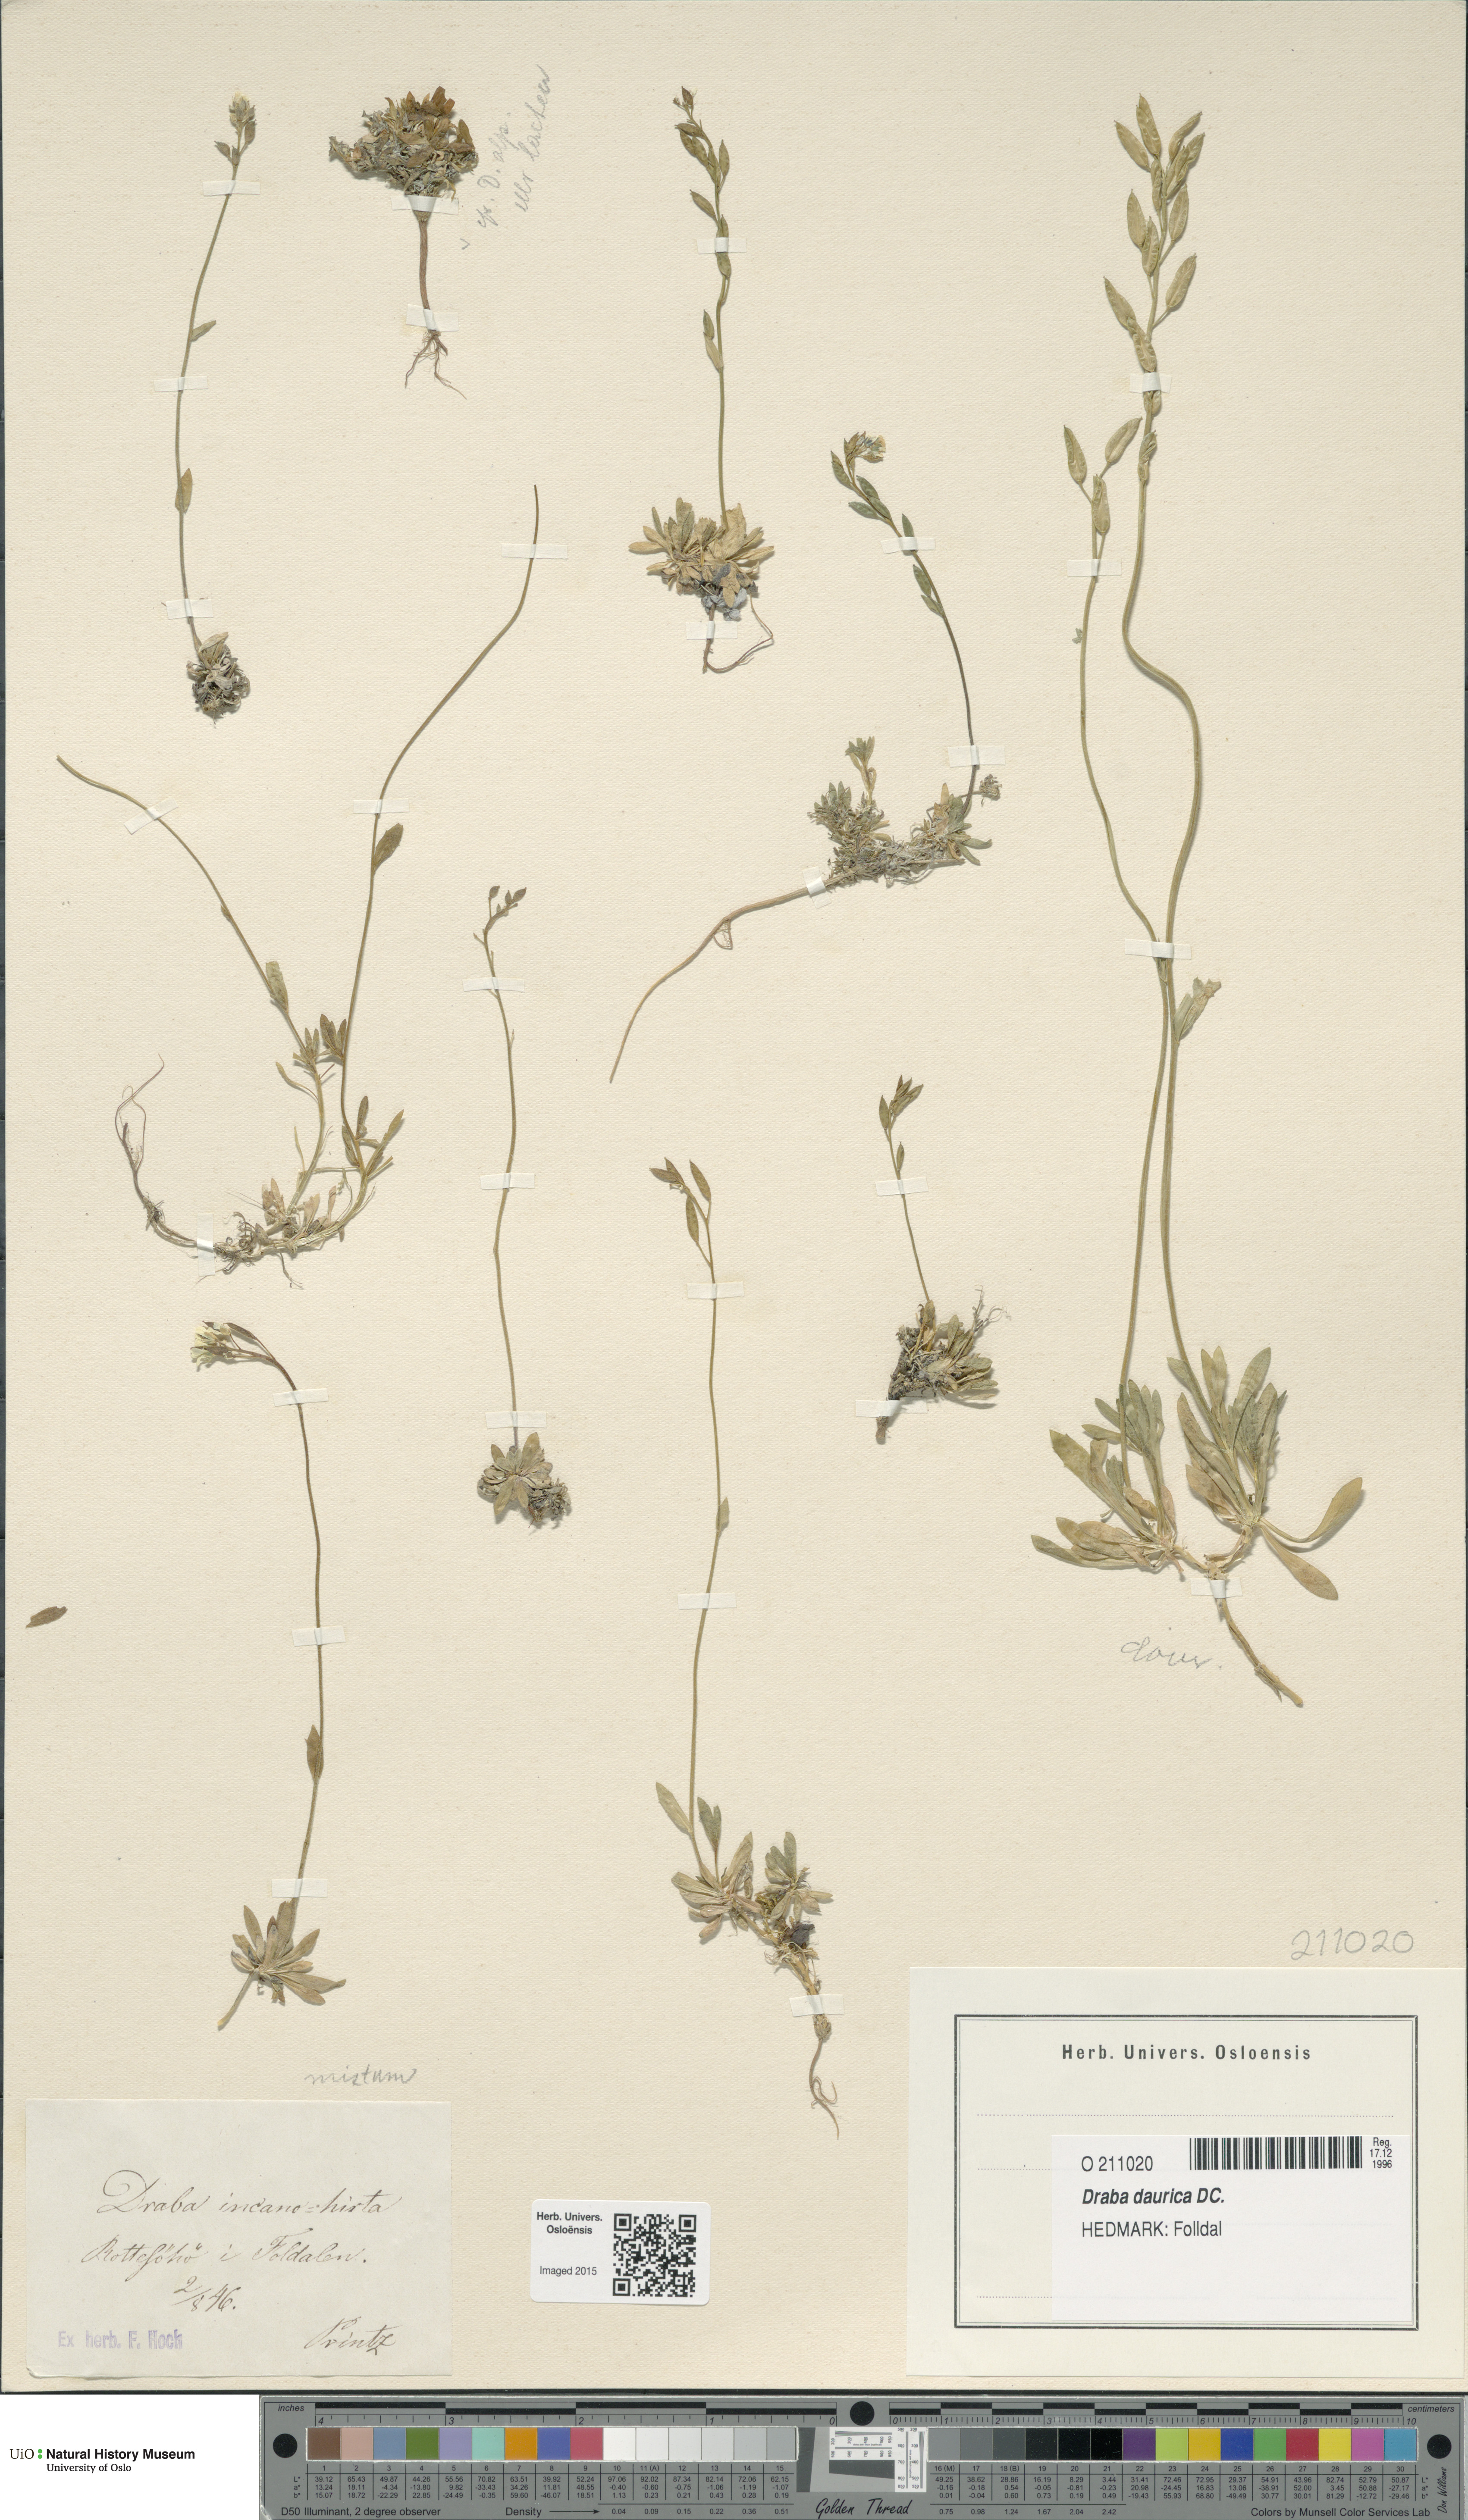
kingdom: Plantae
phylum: Tracheophyta
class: Magnoliopsida
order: Brassicales
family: Brassicaceae
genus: Draba
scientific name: Draba glabella
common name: Glaucous draba
